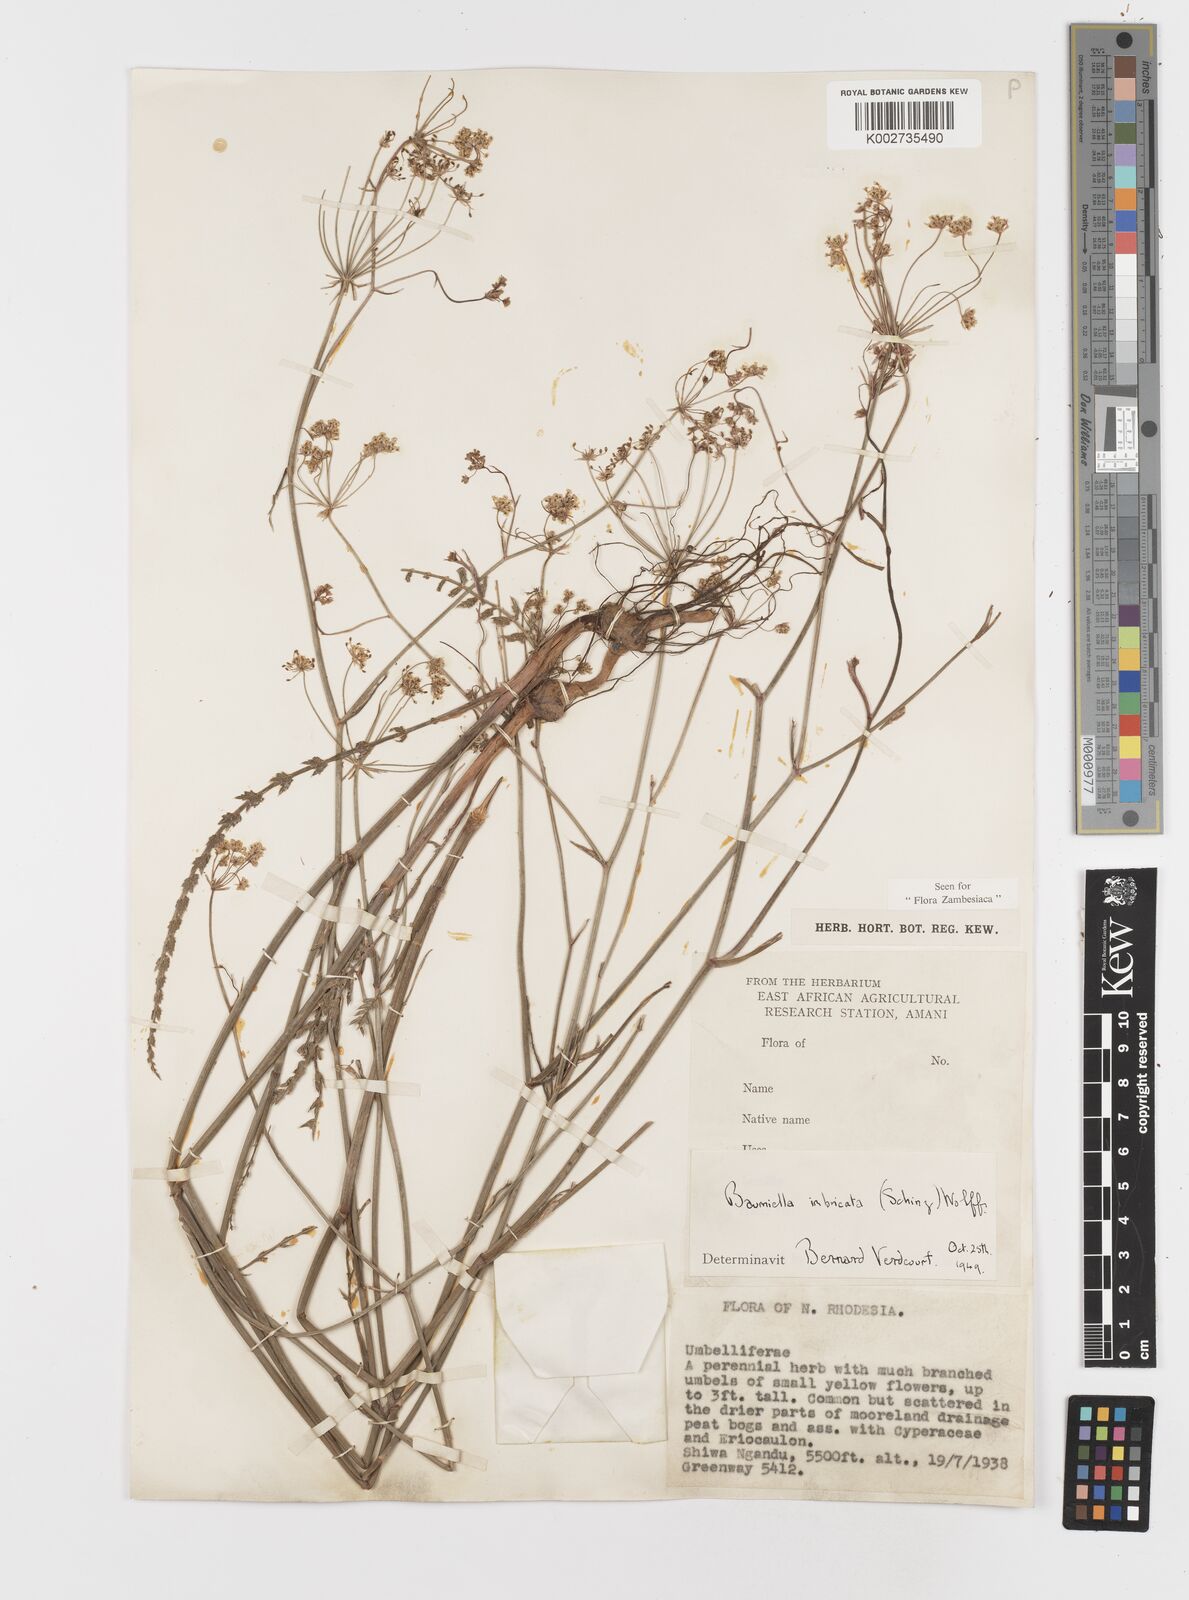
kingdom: Plantae
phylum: Tracheophyta
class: Magnoliopsida
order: Apiales
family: Apiaceae
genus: Berula
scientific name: Berula imbricata
